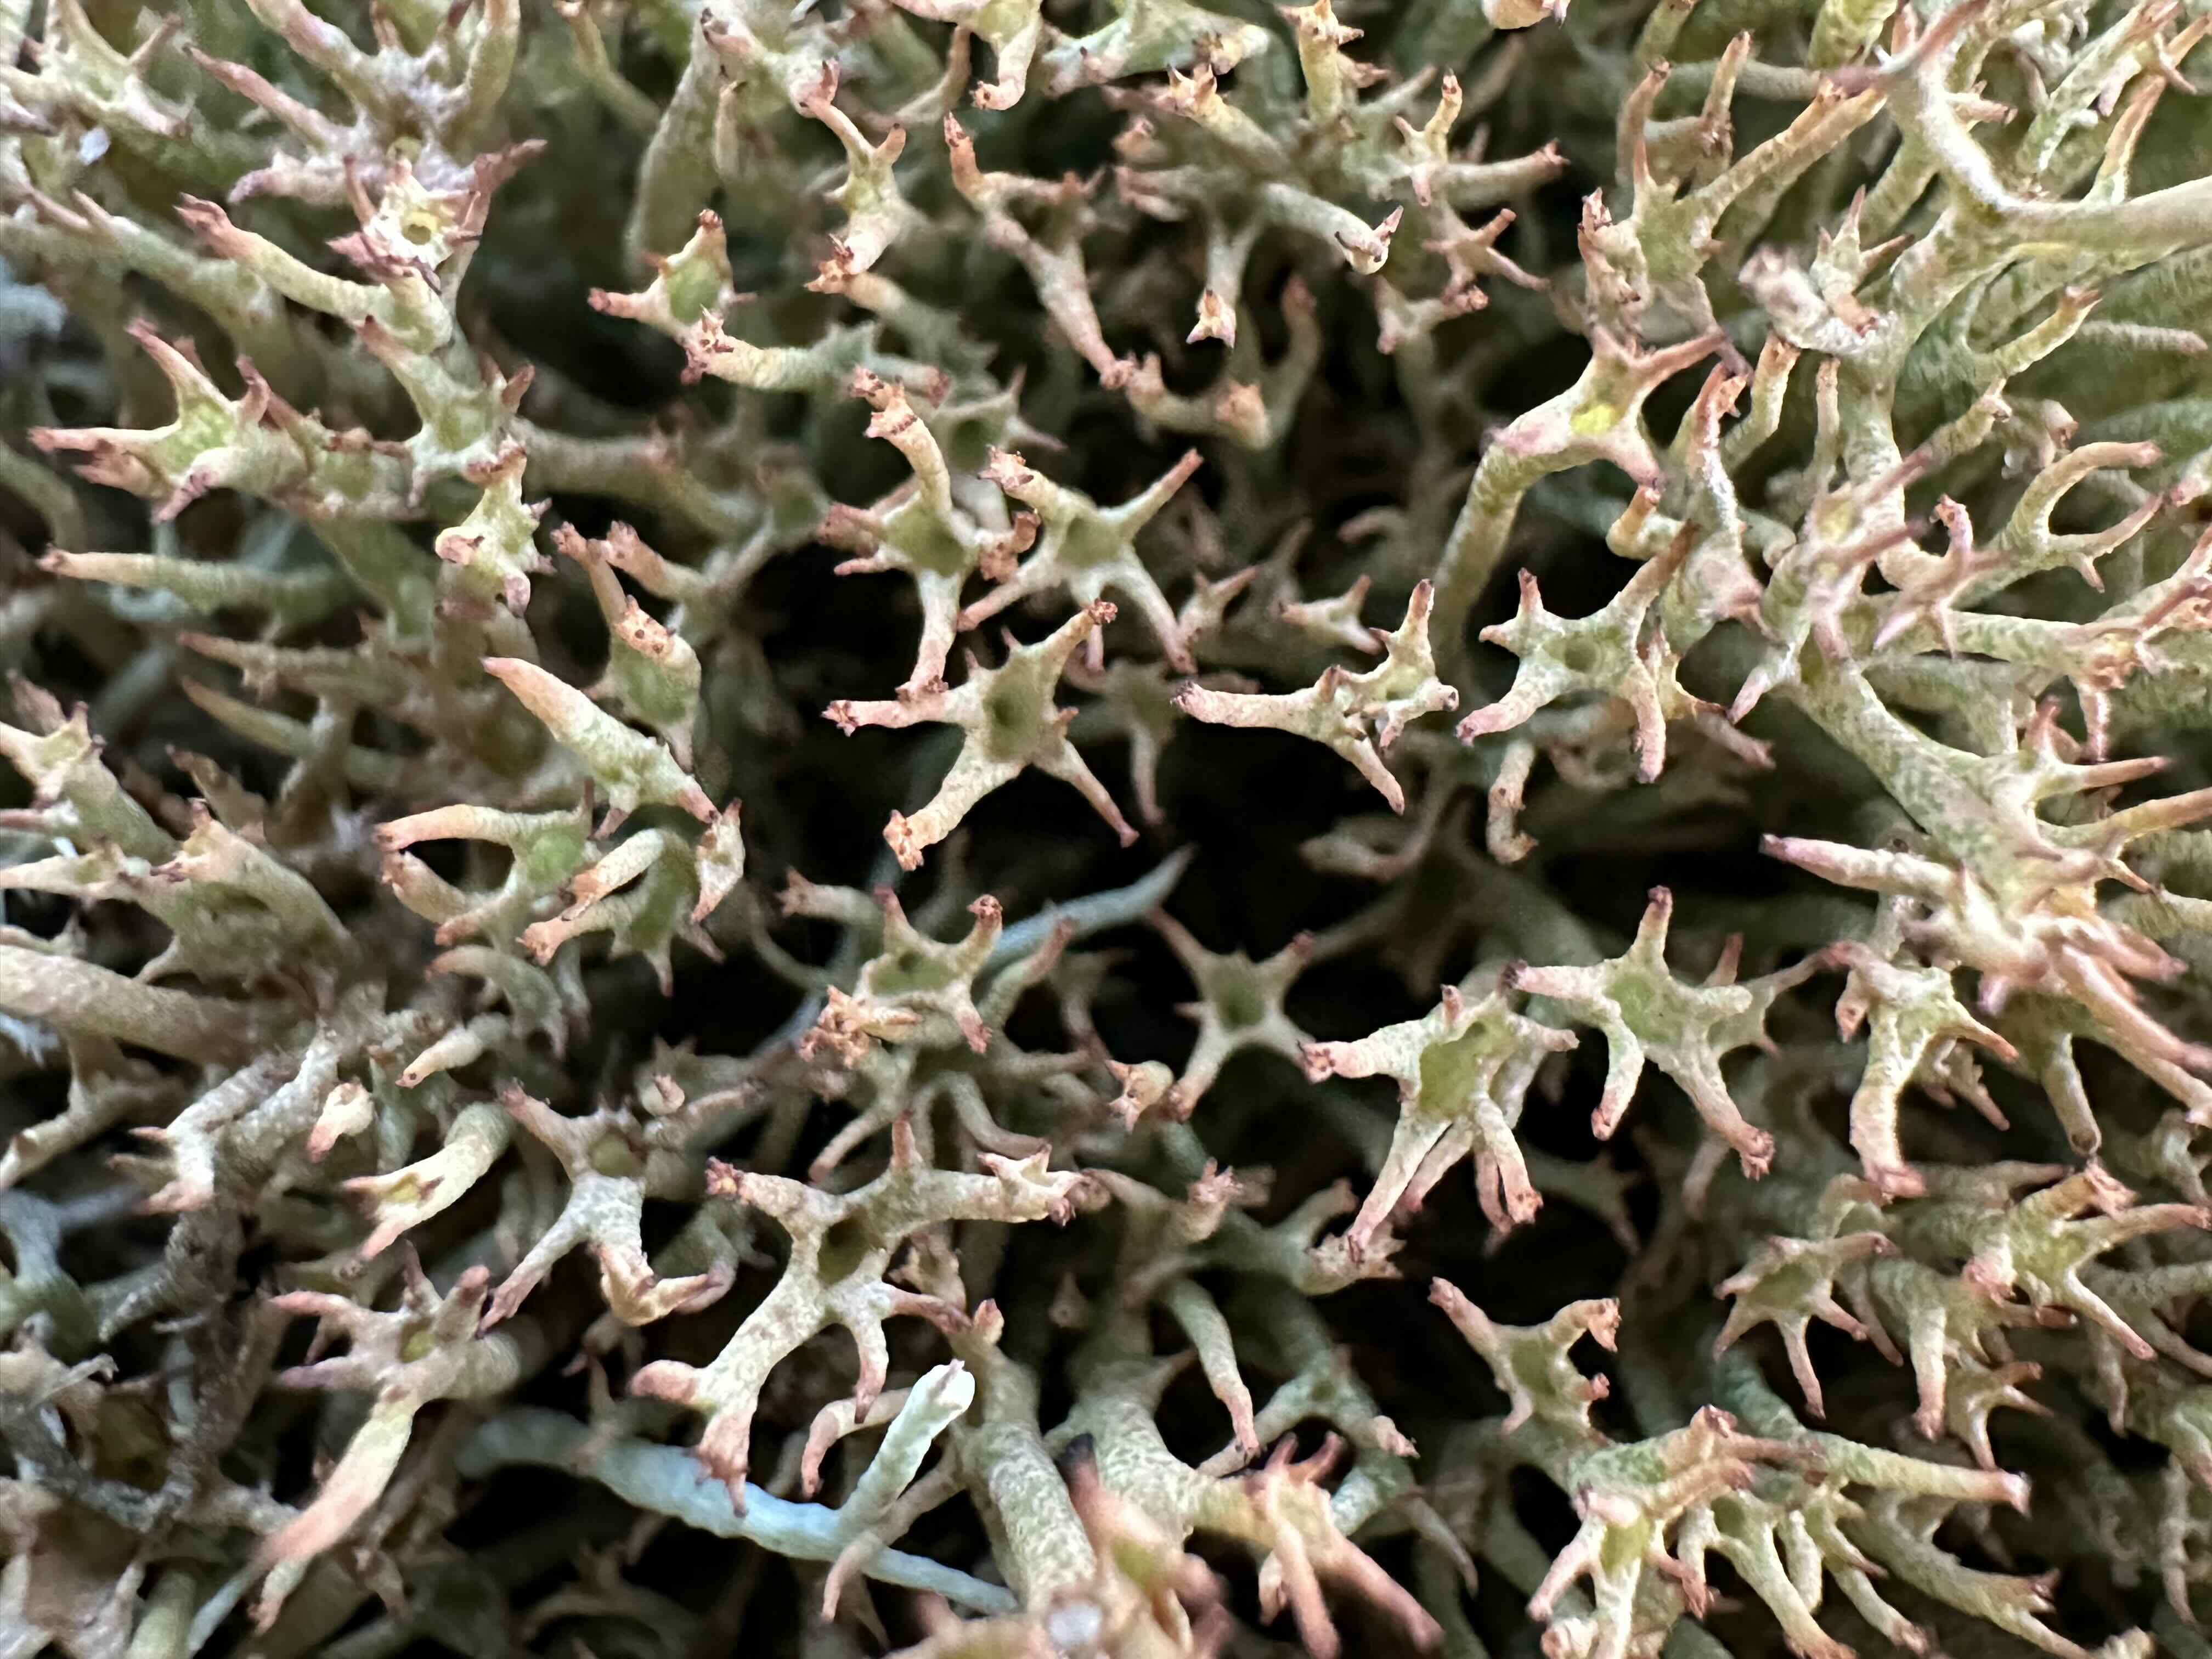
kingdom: Fungi
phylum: Ascomycota
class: Lecanoromycetes
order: Lecanorales
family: Cladoniaceae
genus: Cladonia
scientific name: Cladonia uncialis
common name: pigget bægerlav
